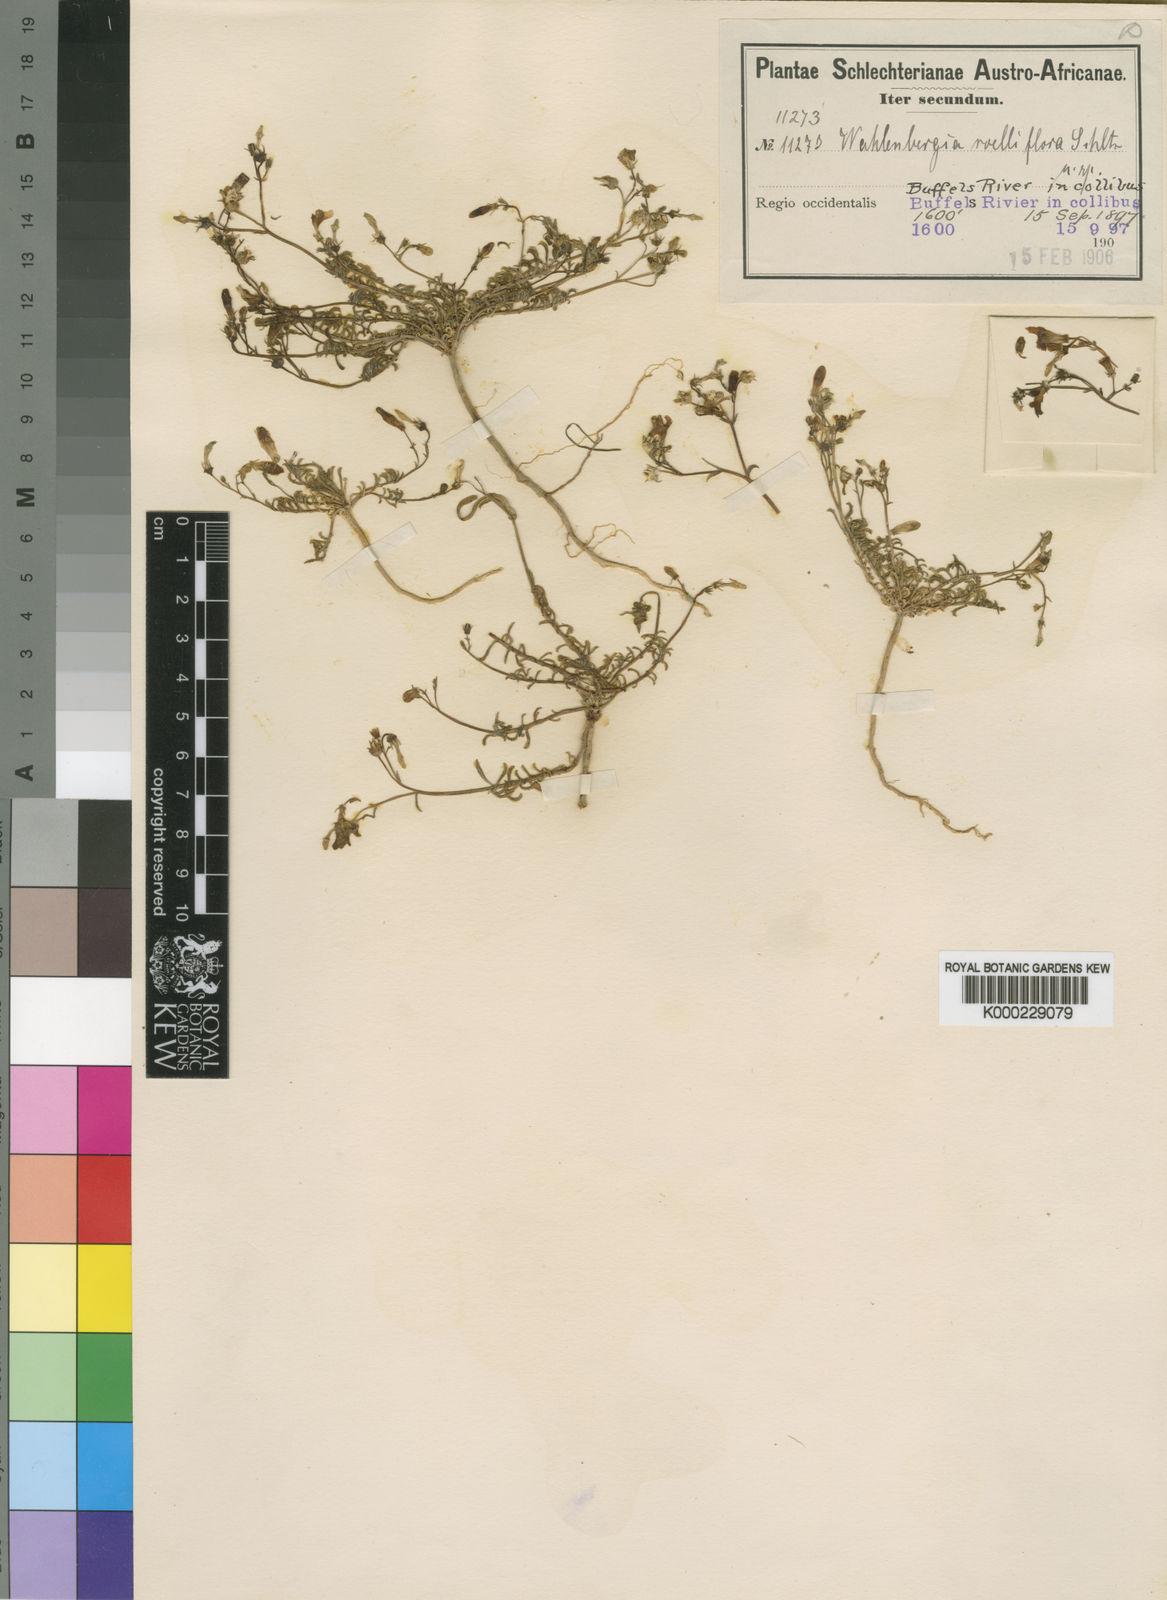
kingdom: Plantae
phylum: Tracheophyta
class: Magnoliopsida
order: Asterales
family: Campanulaceae
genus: Wahlenbergia
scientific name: Wahlenbergia roelliflora
